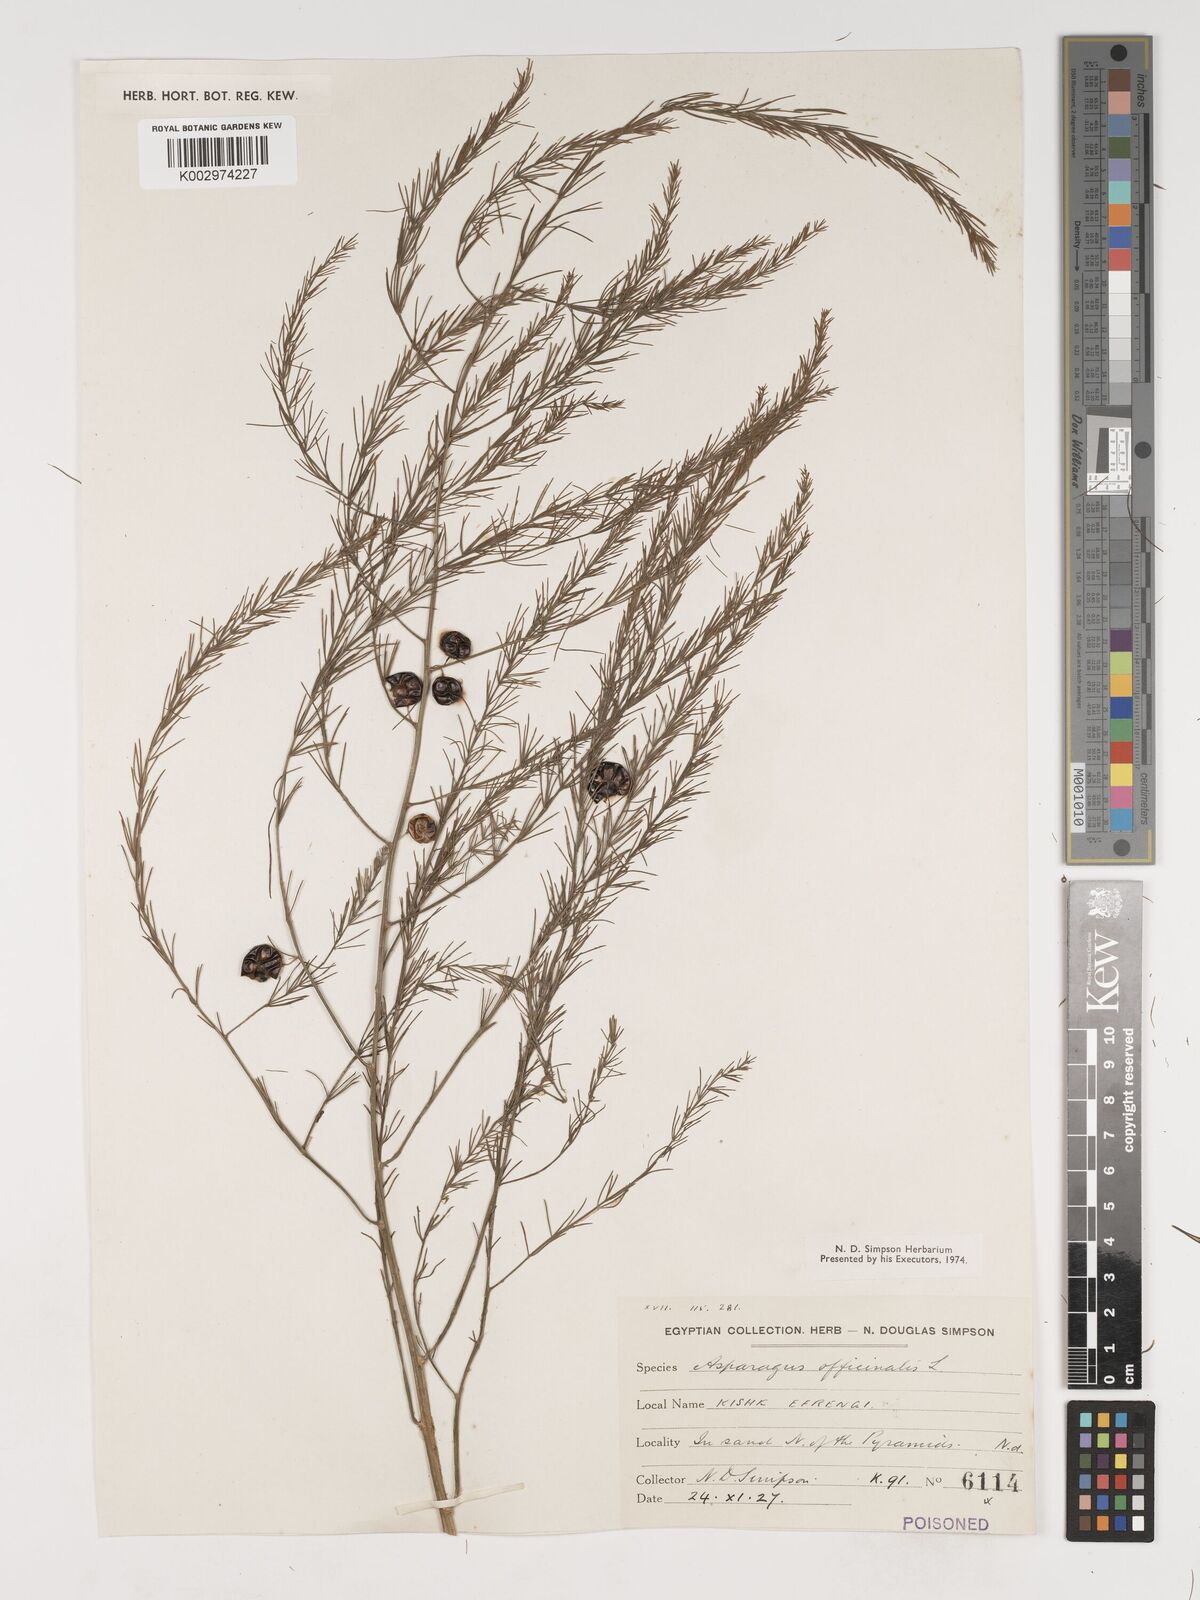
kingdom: Plantae
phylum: Tracheophyta
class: Liliopsida
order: Asparagales
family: Asparagaceae
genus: Asparagus
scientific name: Asparagus officinalis
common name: Garden asparagus
